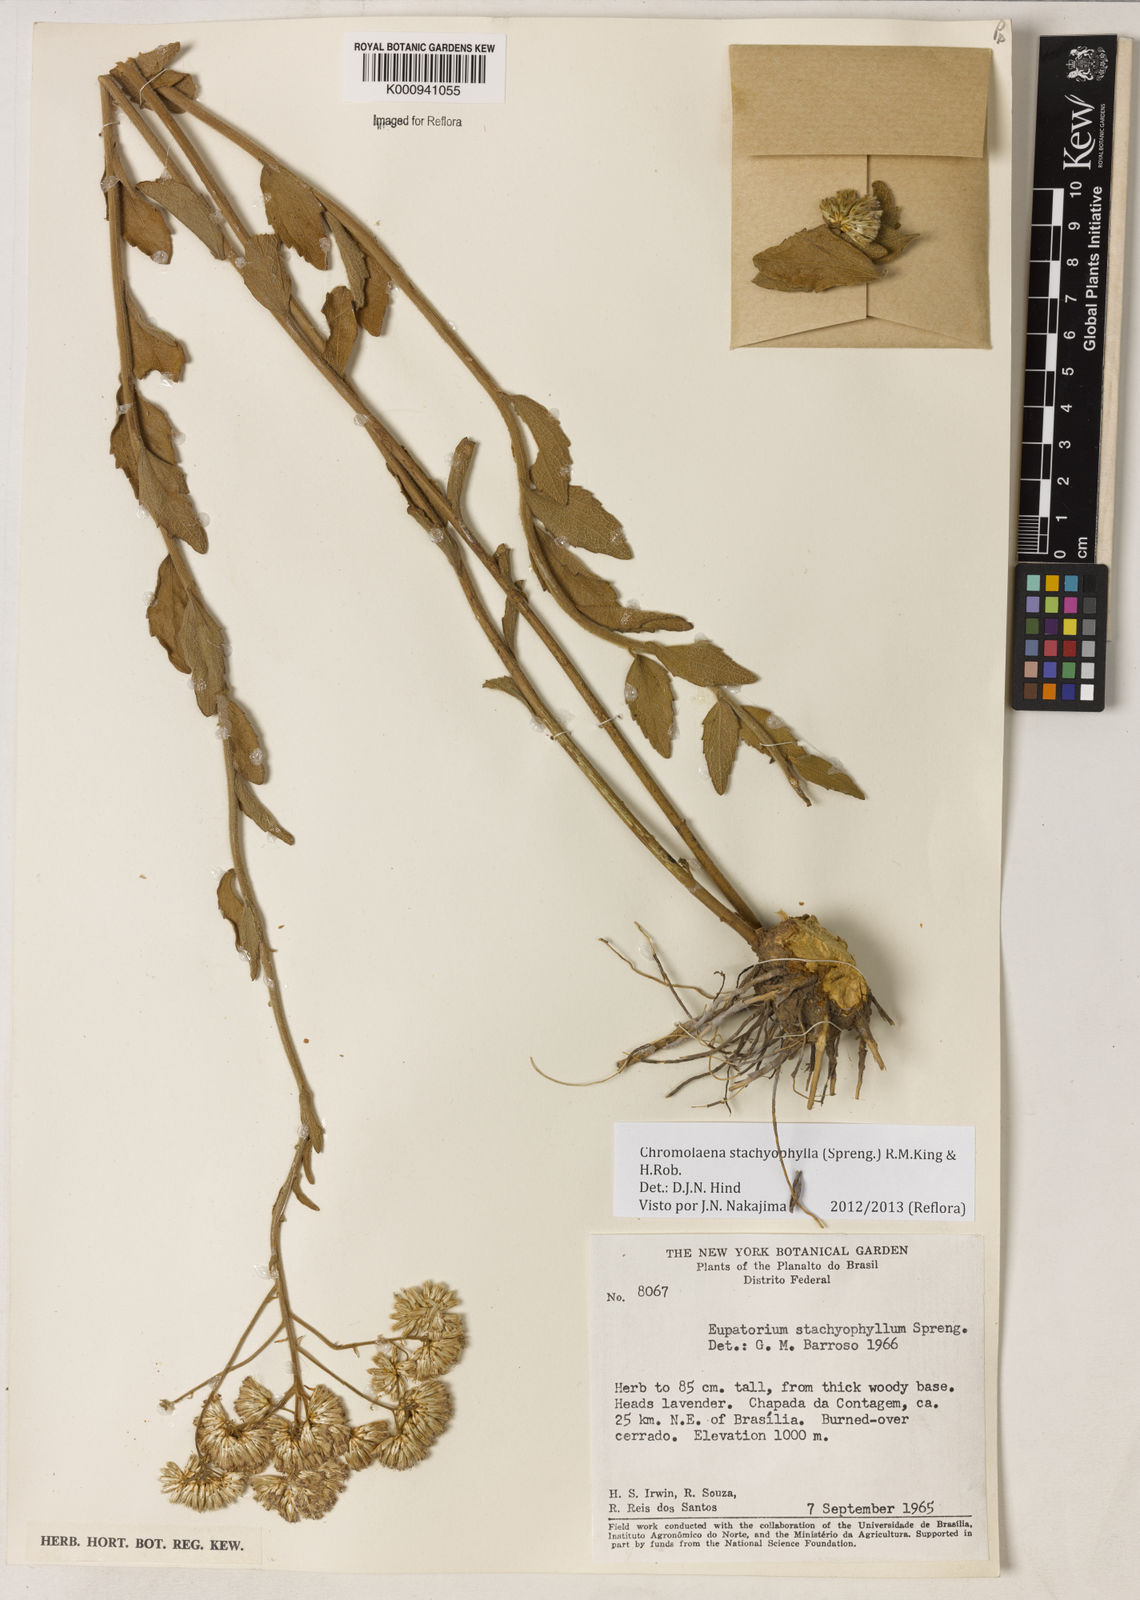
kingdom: Plantae
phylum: Tracheophyta
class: Magnoliopsida
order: Asterales
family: Asteraceae
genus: Chromolaena
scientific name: Chromolaena stachyophylla
